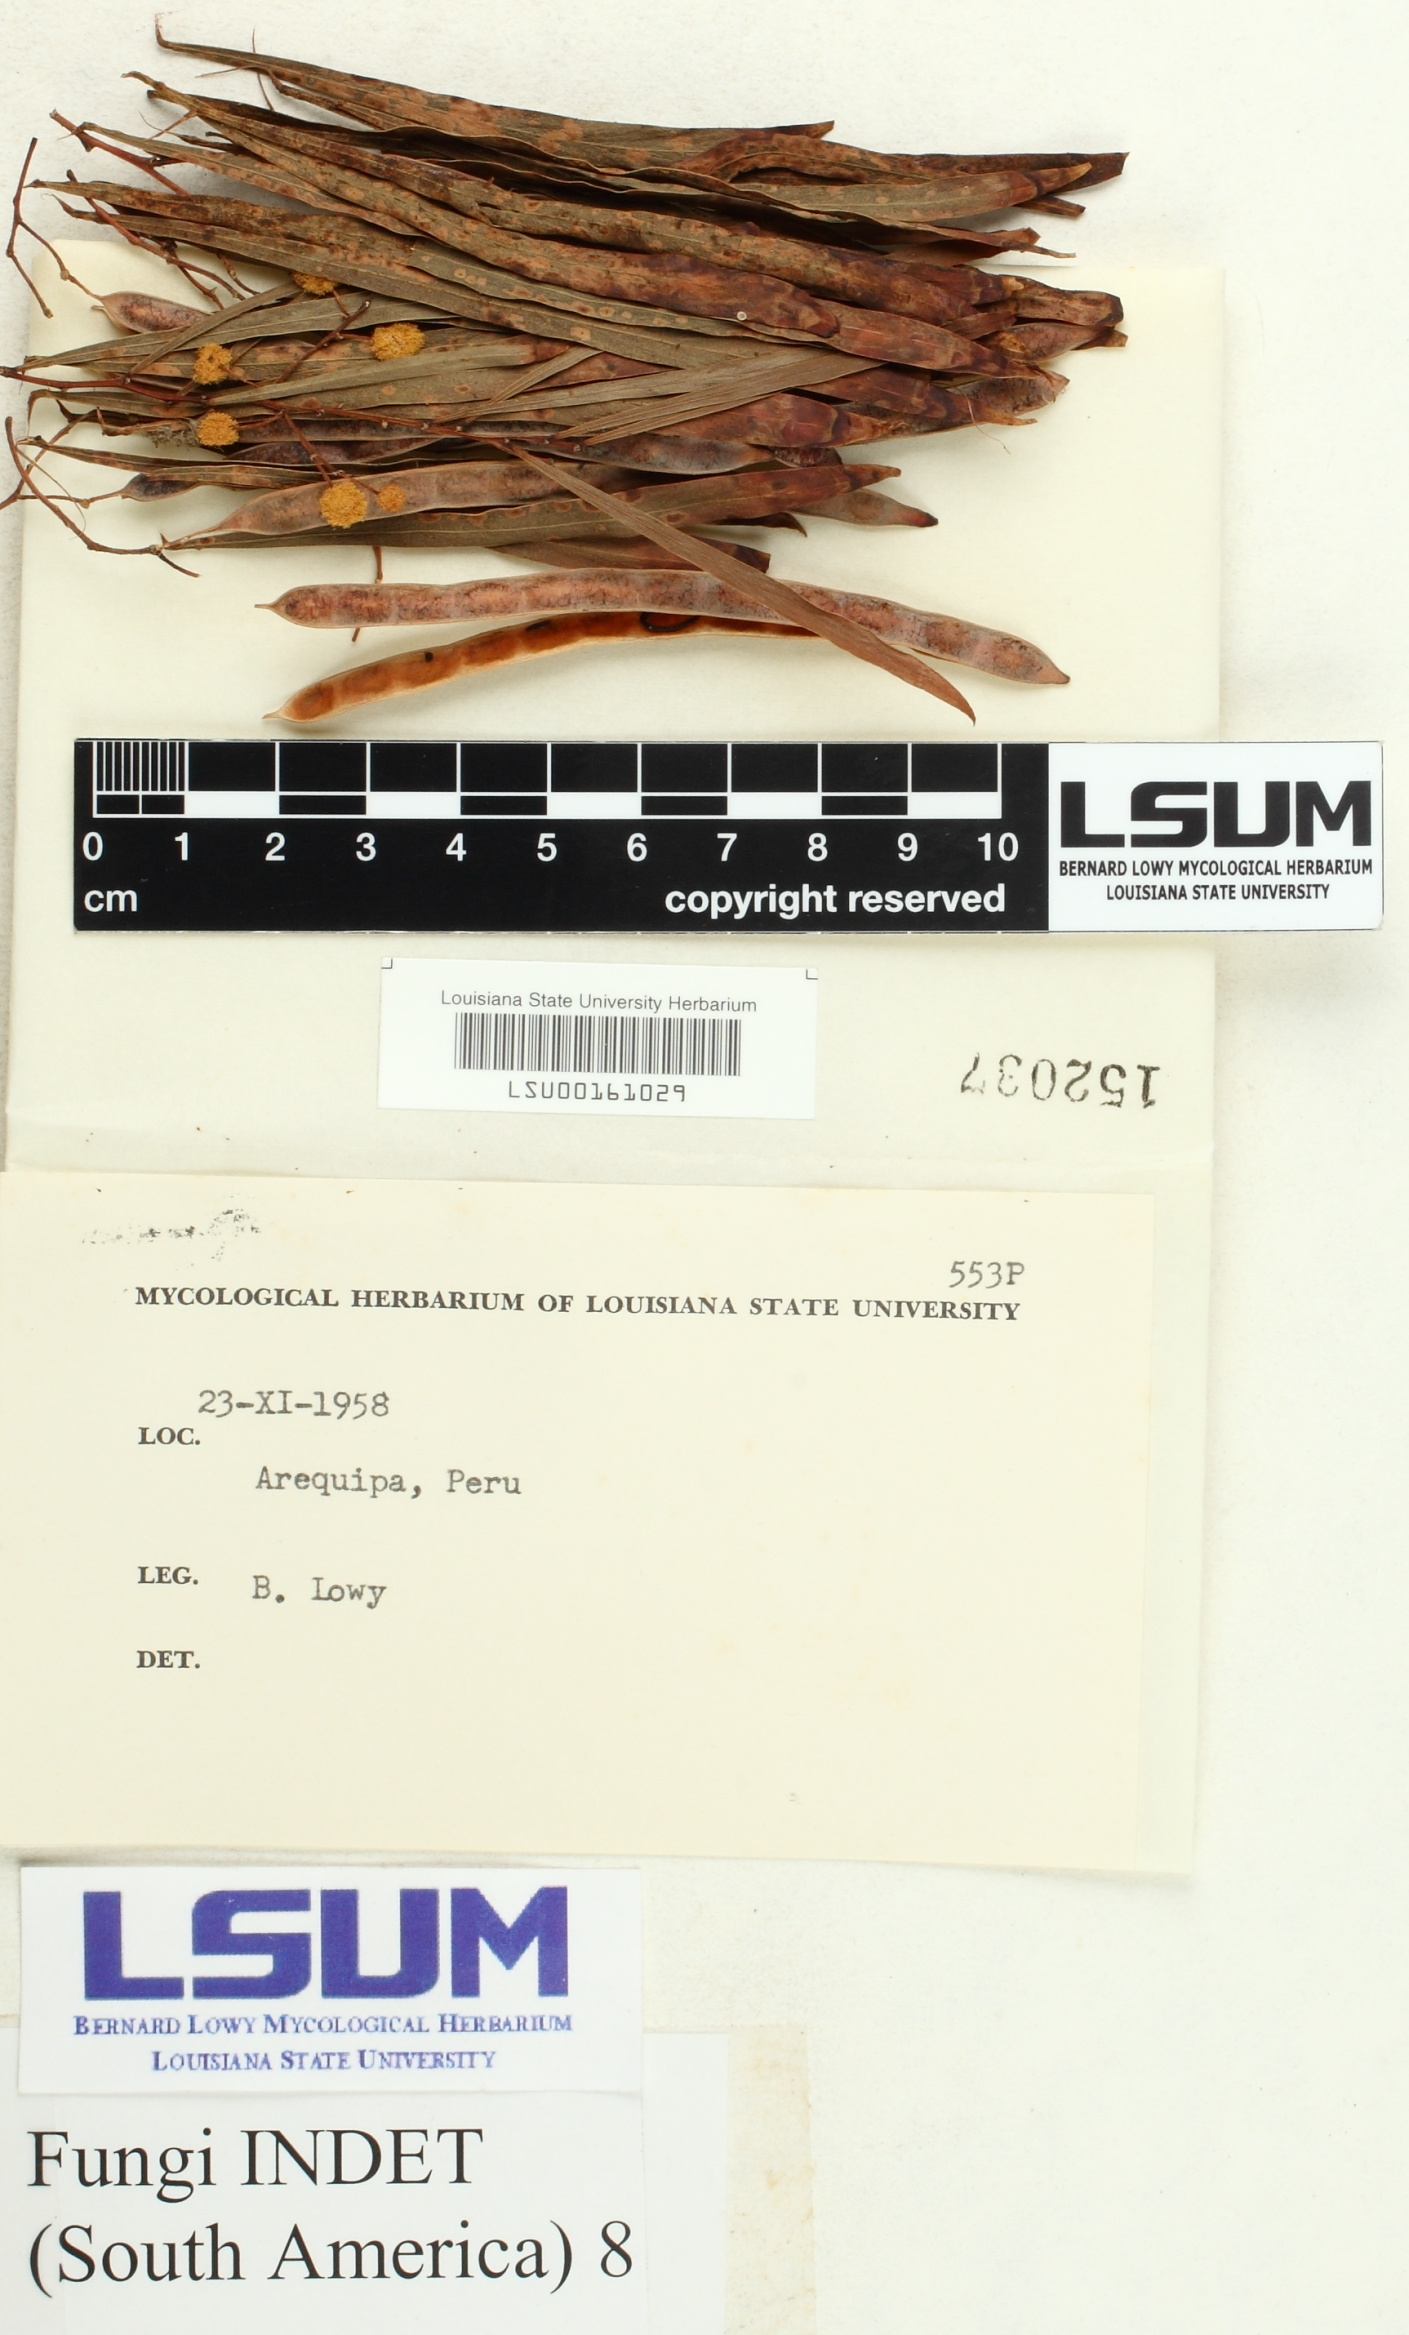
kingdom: Fungi
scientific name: Fungi
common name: Fungi
